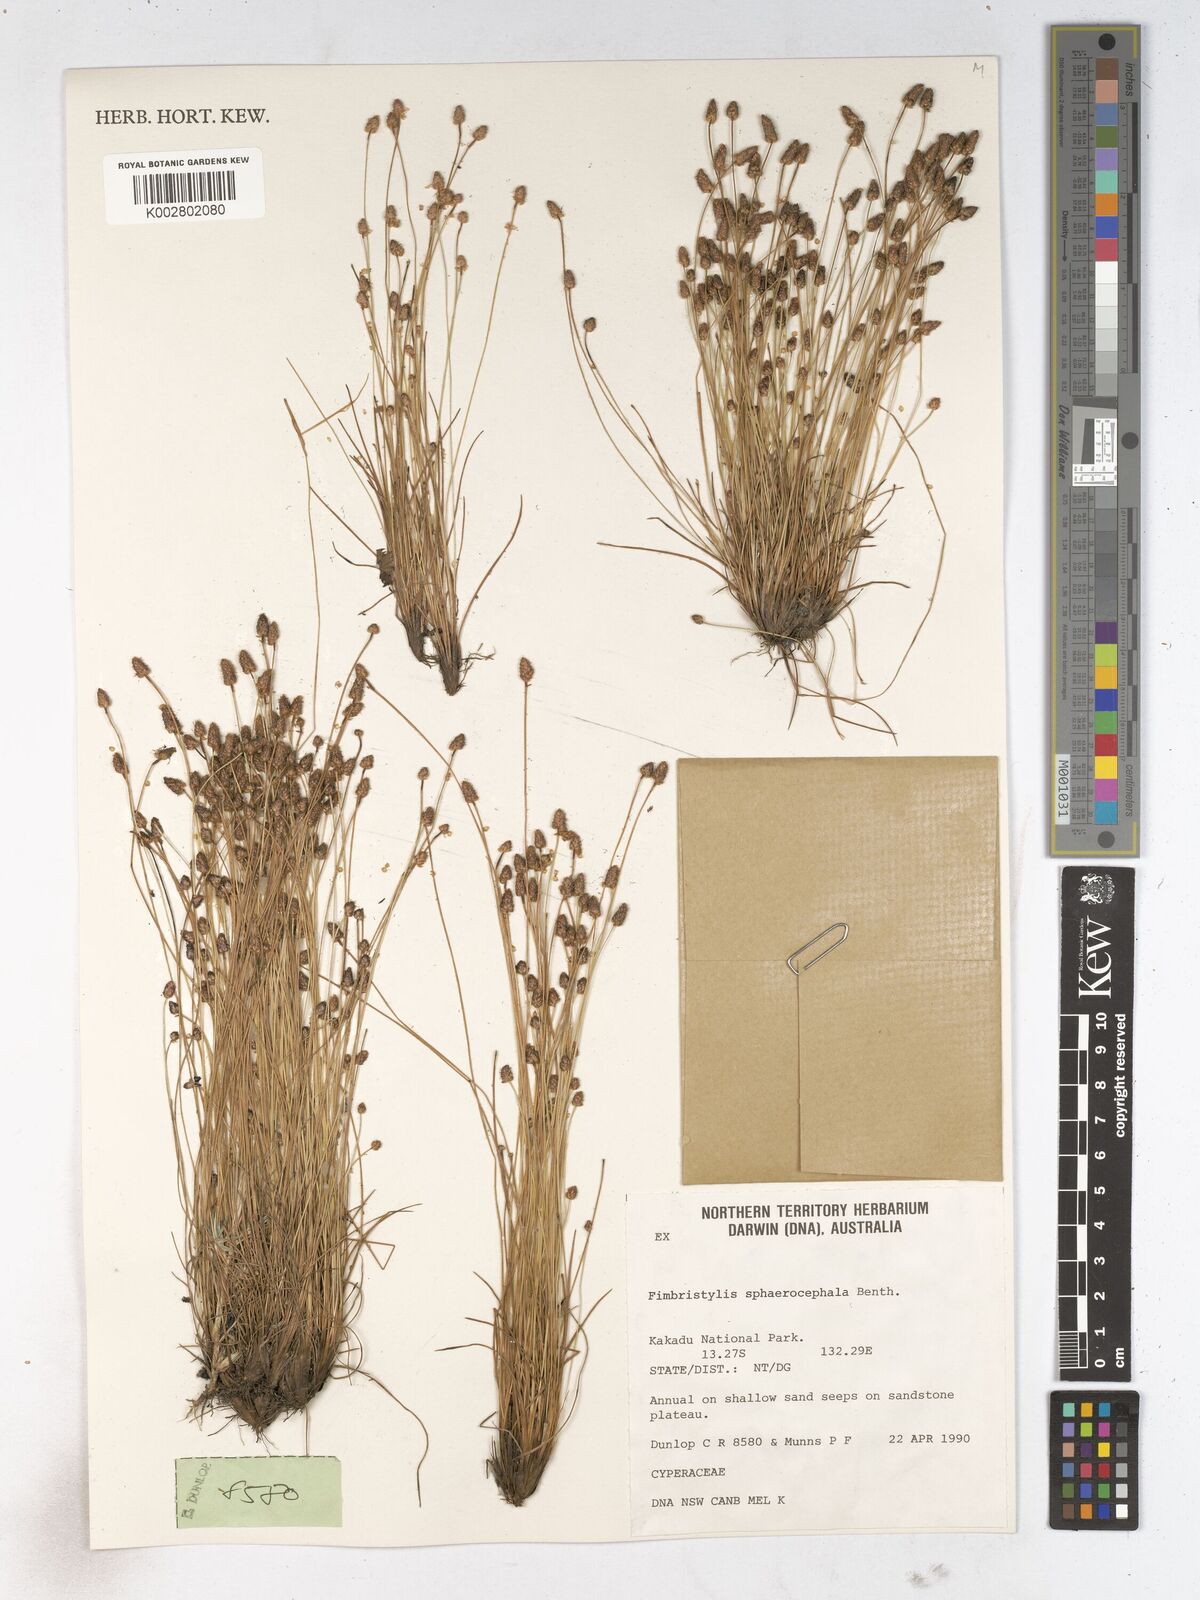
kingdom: Plantae
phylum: Tracheophyta
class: Liliopsida
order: Poales
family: Cyperaceae
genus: Fimbristylis
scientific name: Fimbristylis sphaerocephala
